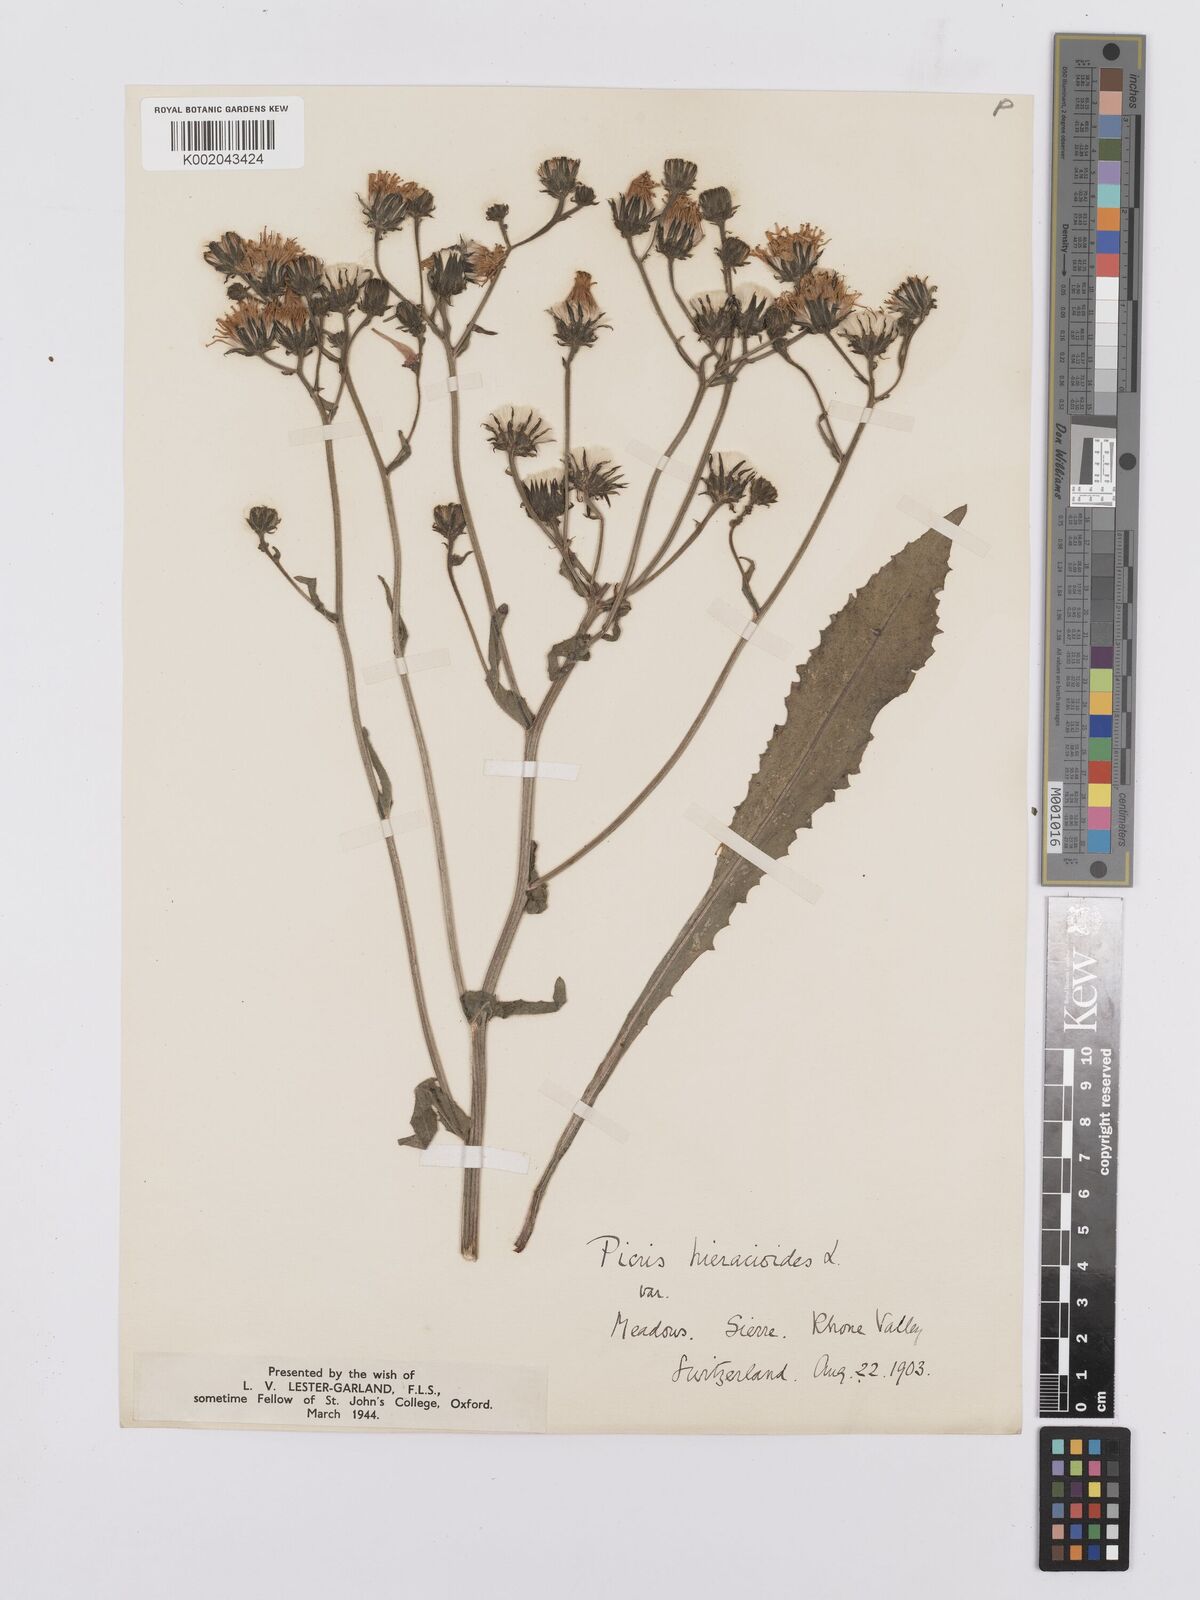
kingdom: Plantae
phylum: Tracheophyta
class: Magnoliopsida
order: Asterales
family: Asteraceae
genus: Picris
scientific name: Picris hieracioides
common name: Hawkweed oxtongue
